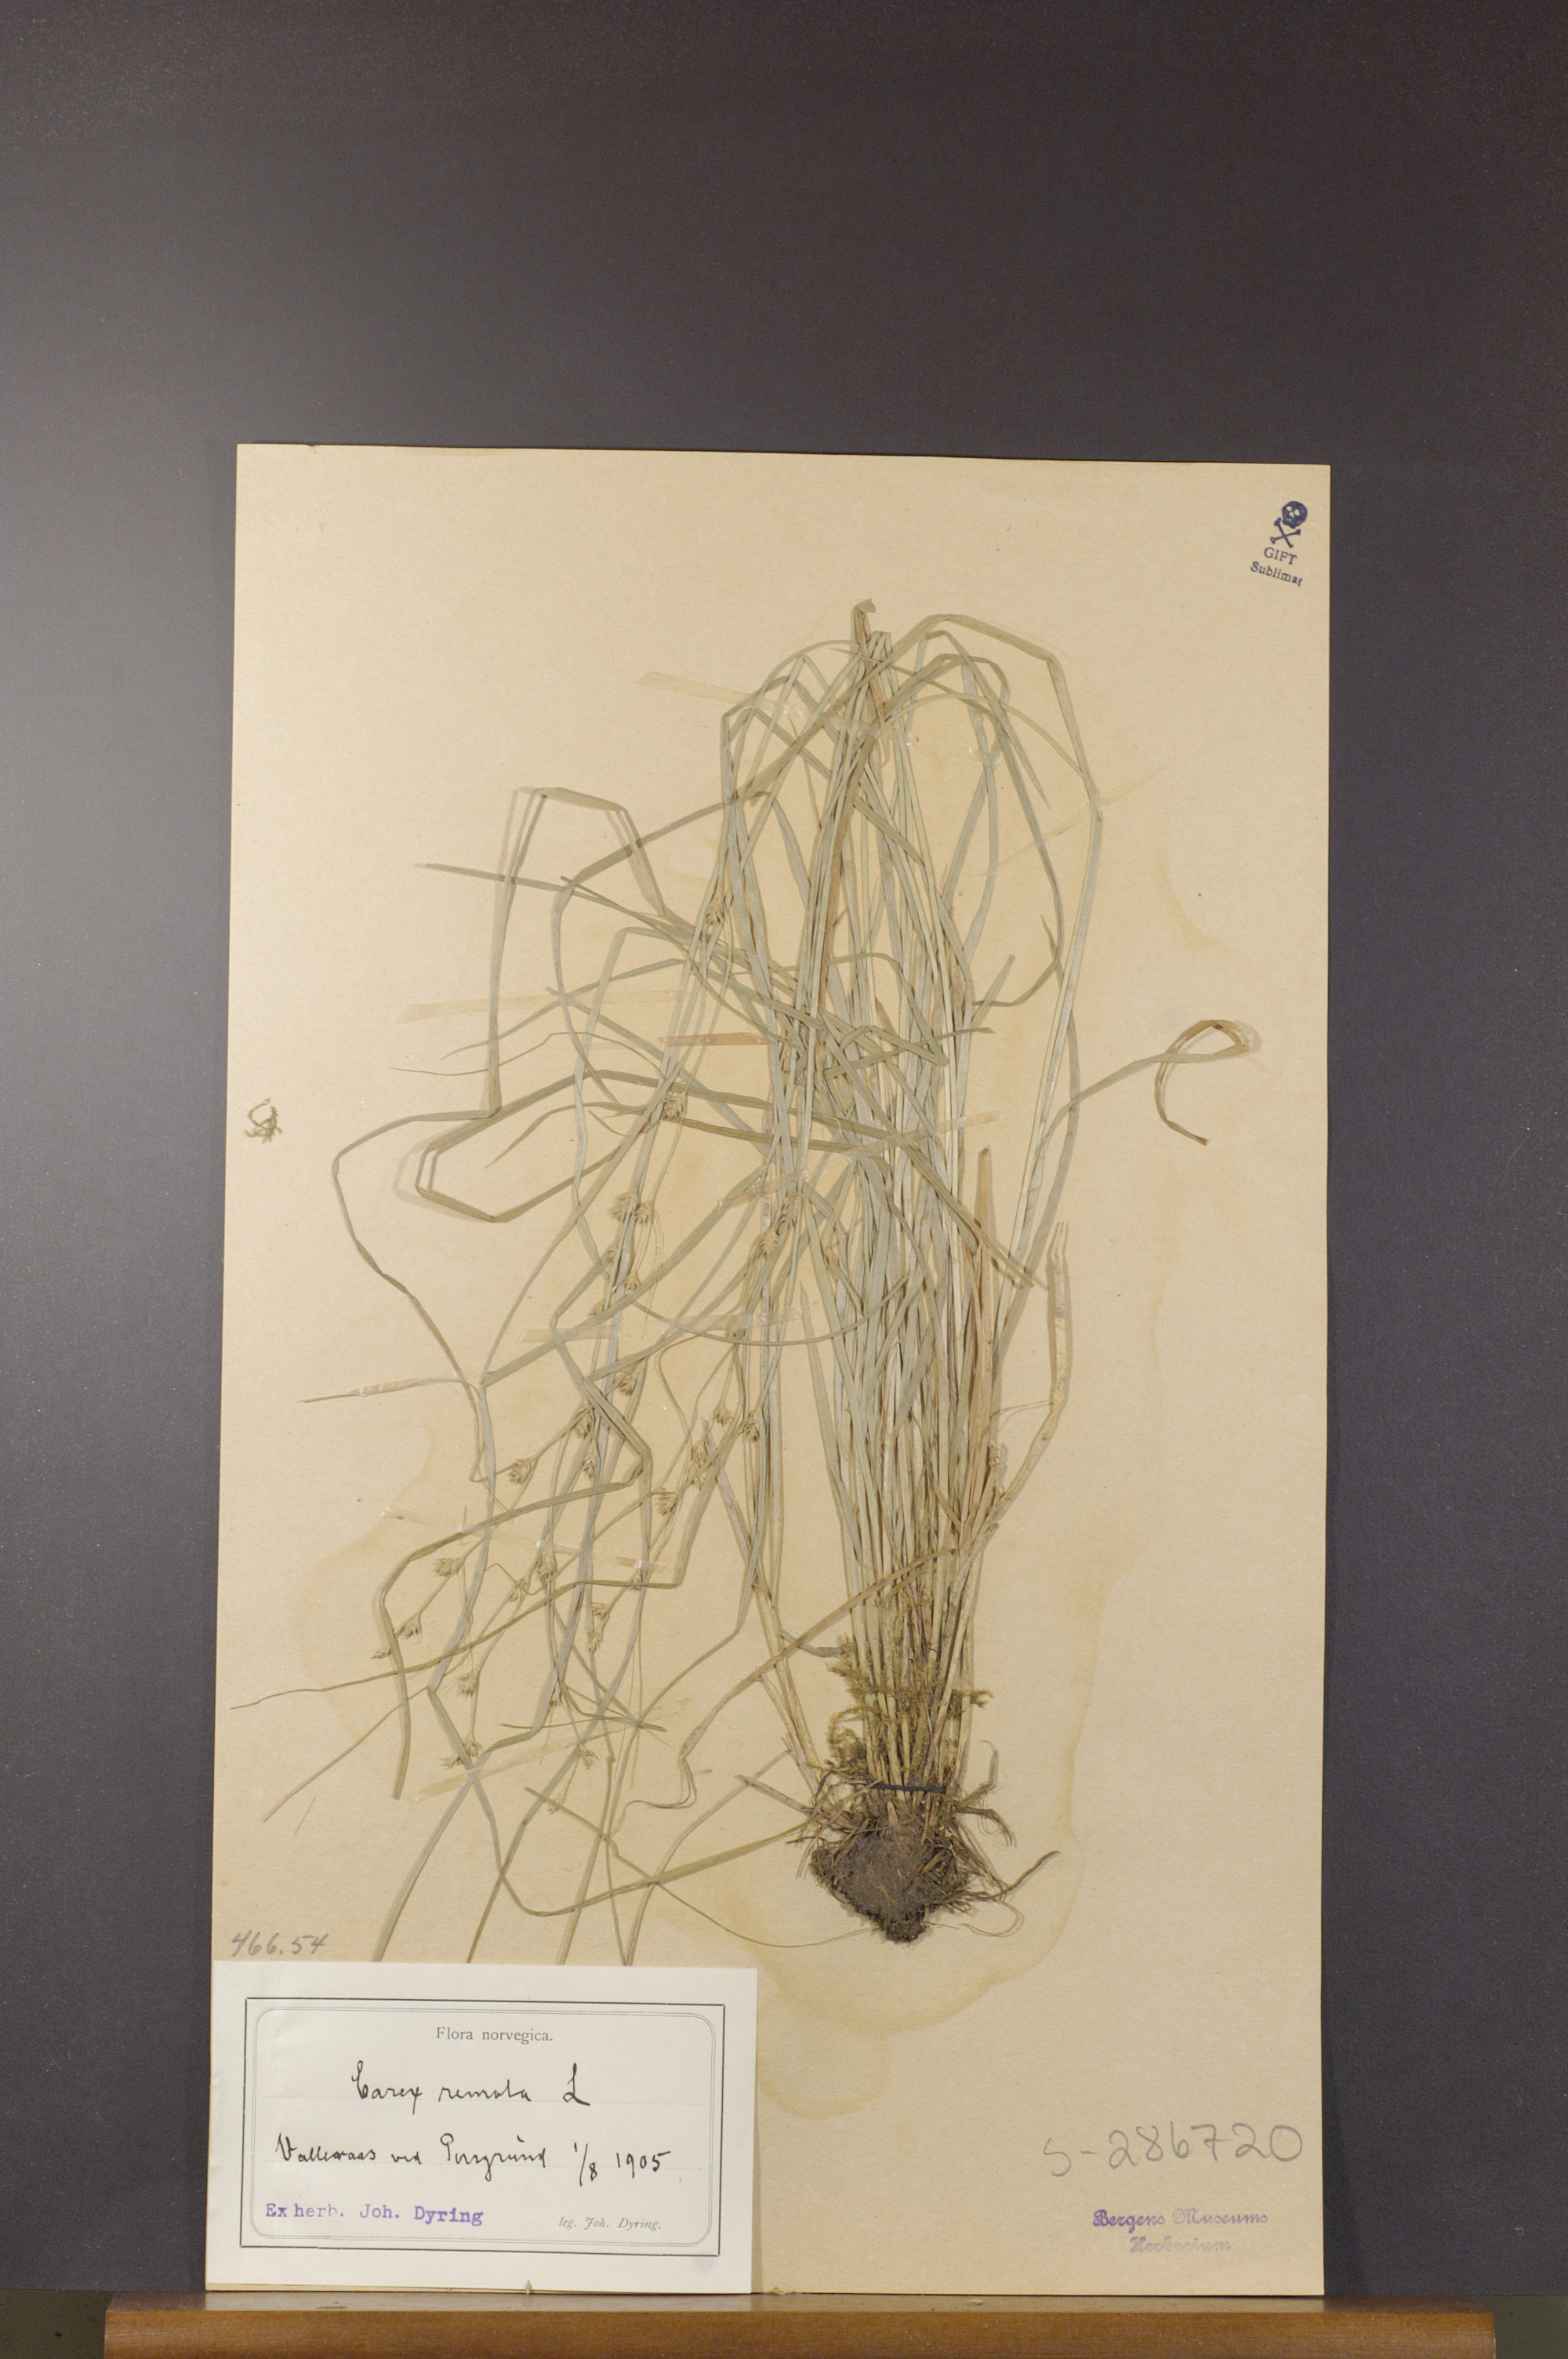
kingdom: Plantae
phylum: Tracheophyta
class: Liliopsida
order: Poales
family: Cyperaceae
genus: Carex
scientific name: Carex remota
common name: Remote sedge
